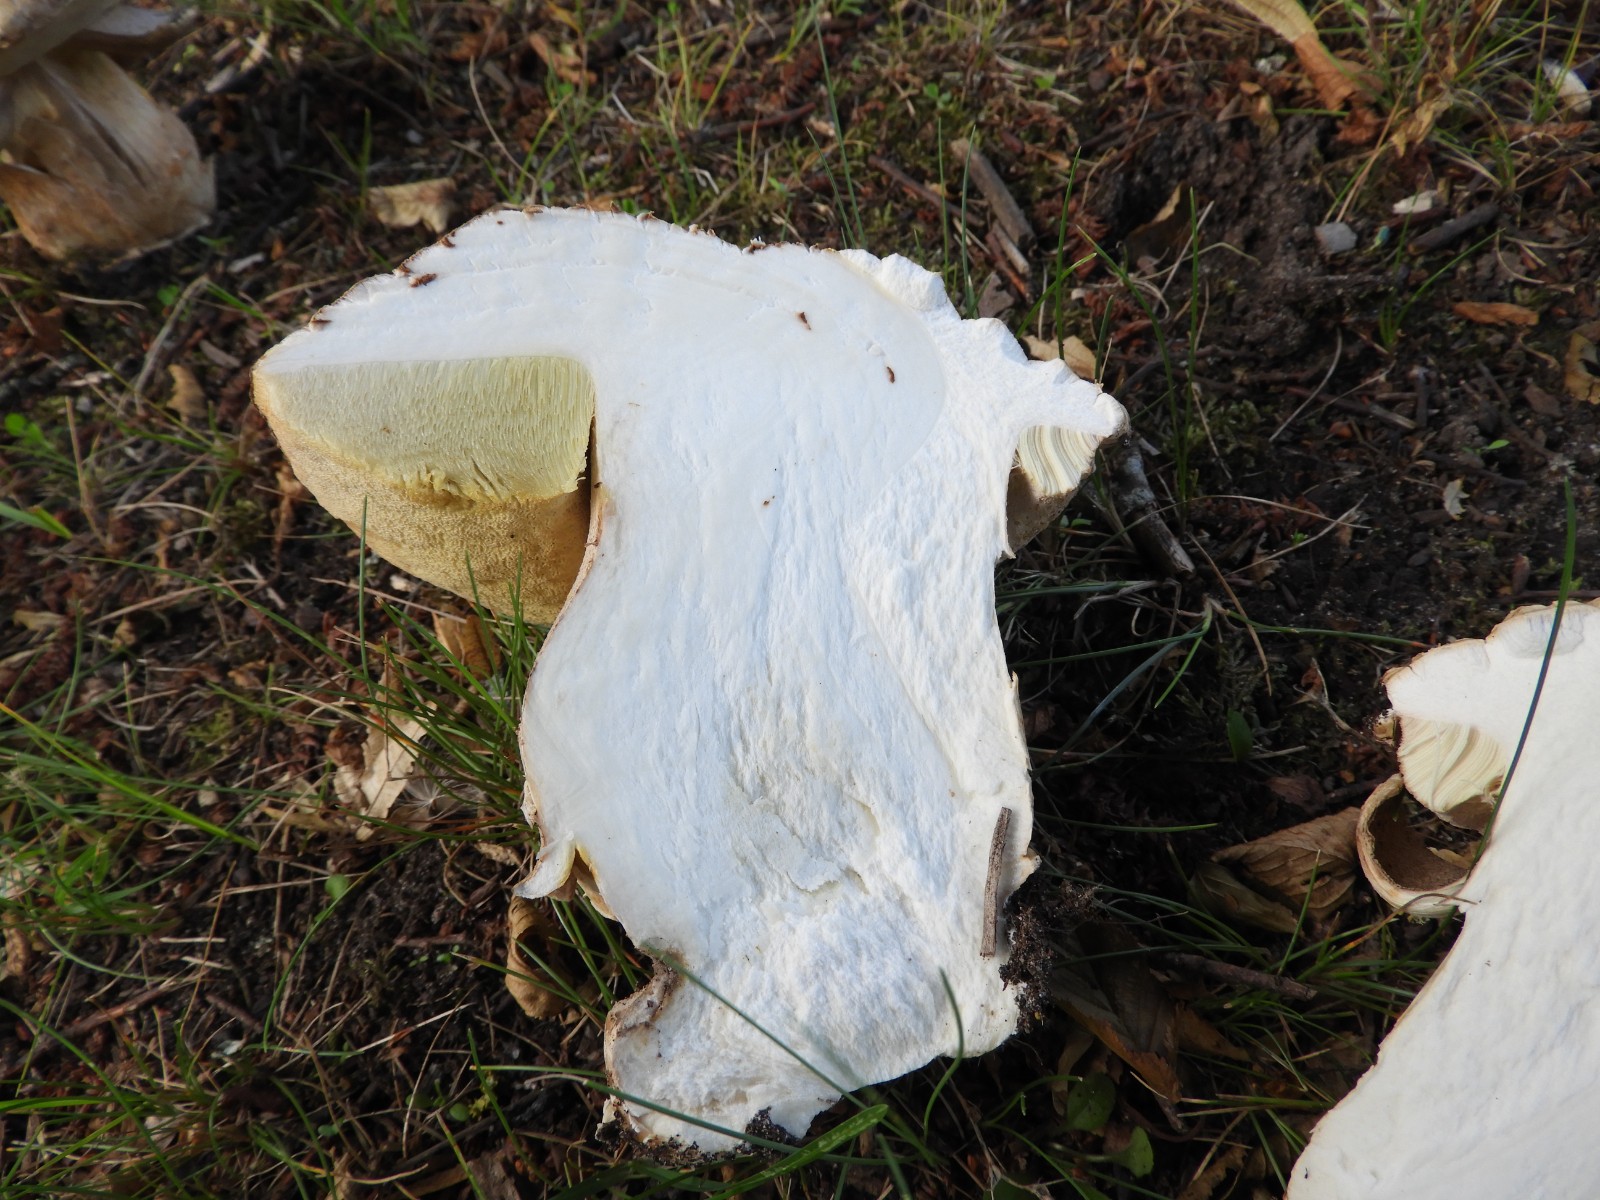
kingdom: Fungi
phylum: Basidiomycota
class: Agaricomycetes
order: Boletales
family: Boletaceae
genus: Boletus
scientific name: Boletus reticulatus
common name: sommer-rørhat
